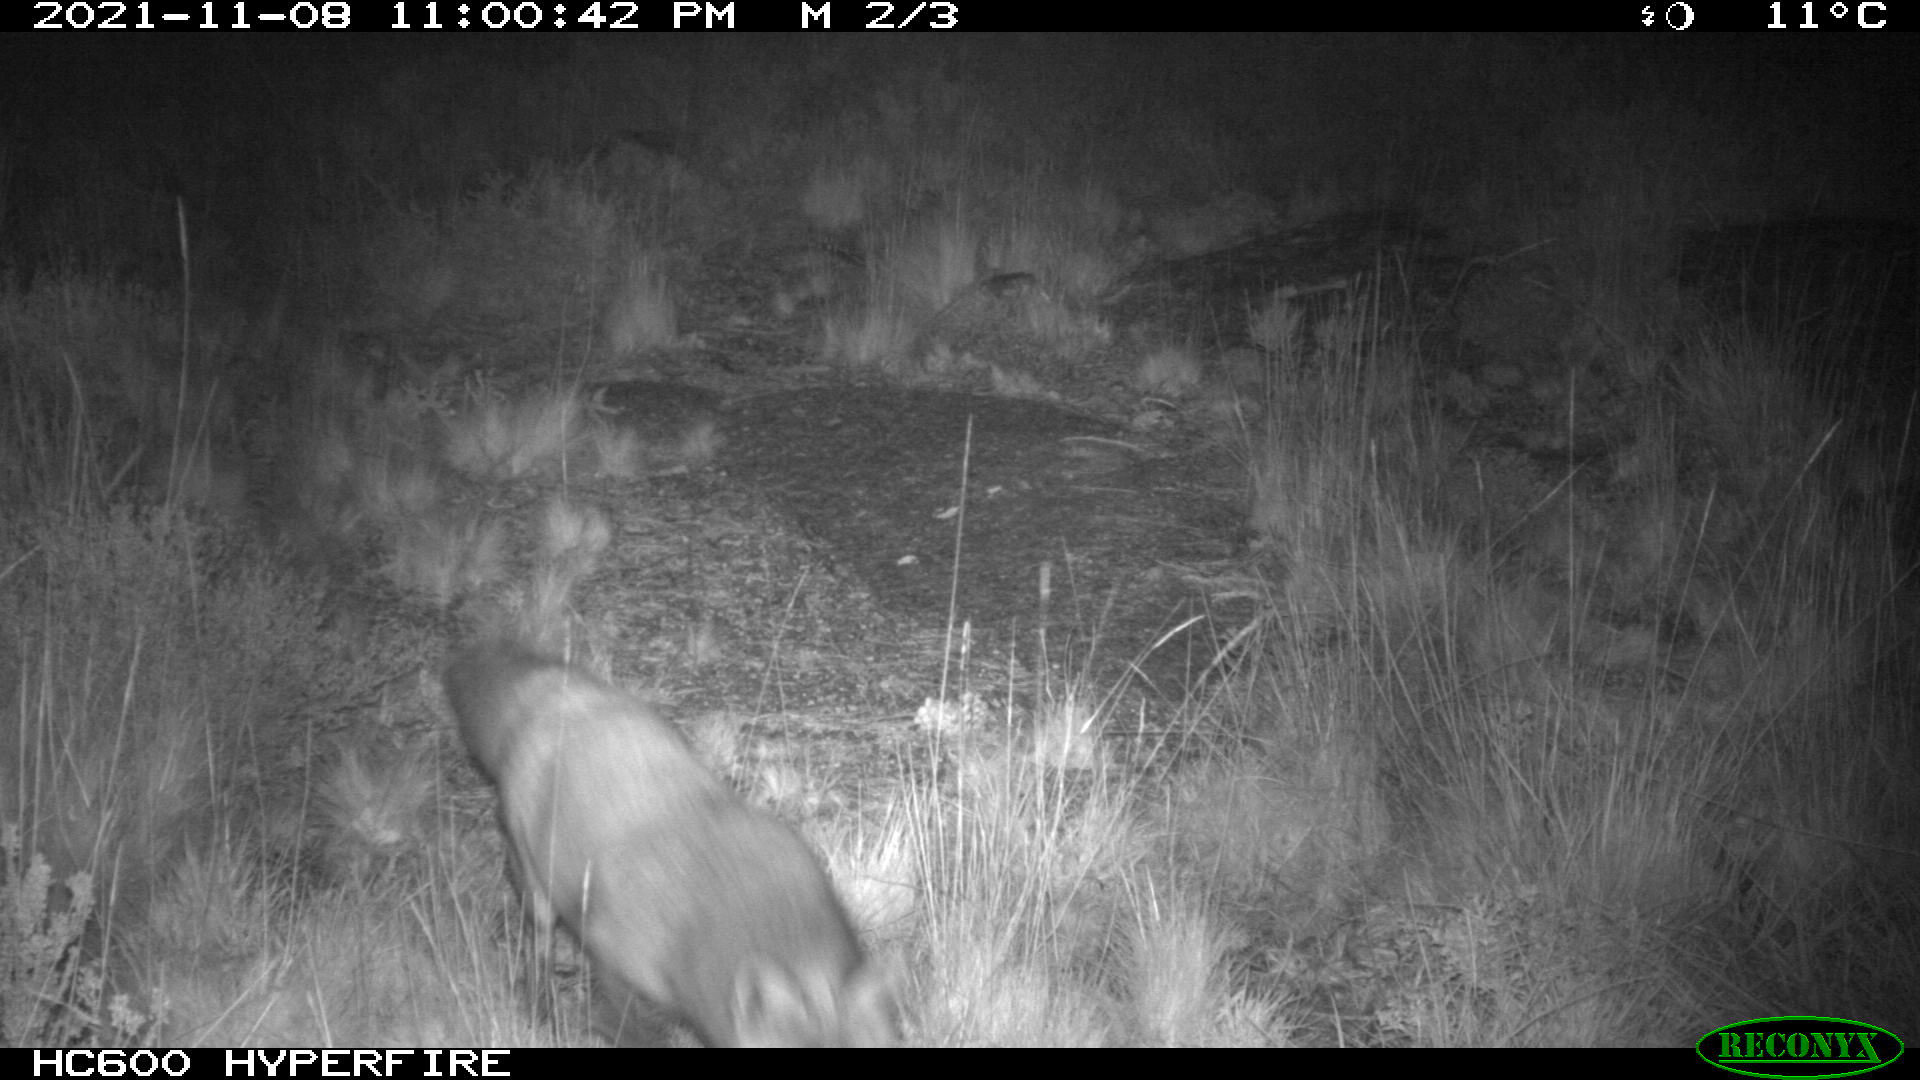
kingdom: Animalia
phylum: Chordata
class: Mammalia
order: Carnivora
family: Canidae
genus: Vulpes
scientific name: Vulpes vulpes
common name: Red fox
